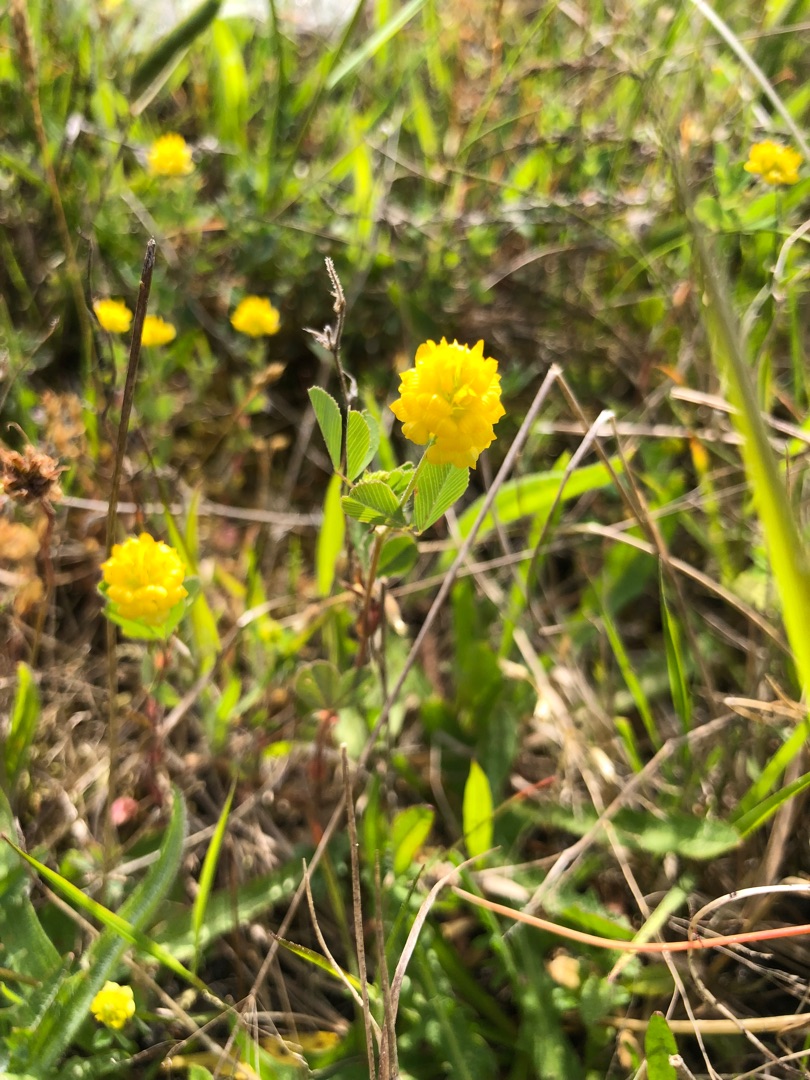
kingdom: Plantae
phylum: Tracheophyta
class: Magnoliopsida
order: Fabales
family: Fabaceae
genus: Trifolium
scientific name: Trifolium campestre
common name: Gul kløver
